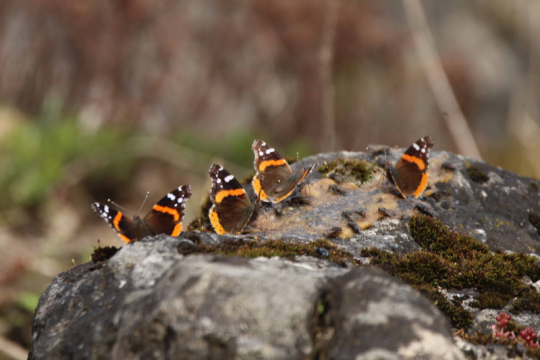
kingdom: Animalia
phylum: Arthropoda
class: Insecta
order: Lepidoptera
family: Nymphalidae
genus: Vanessa
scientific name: Vanessa atalanta
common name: Red Admiral
